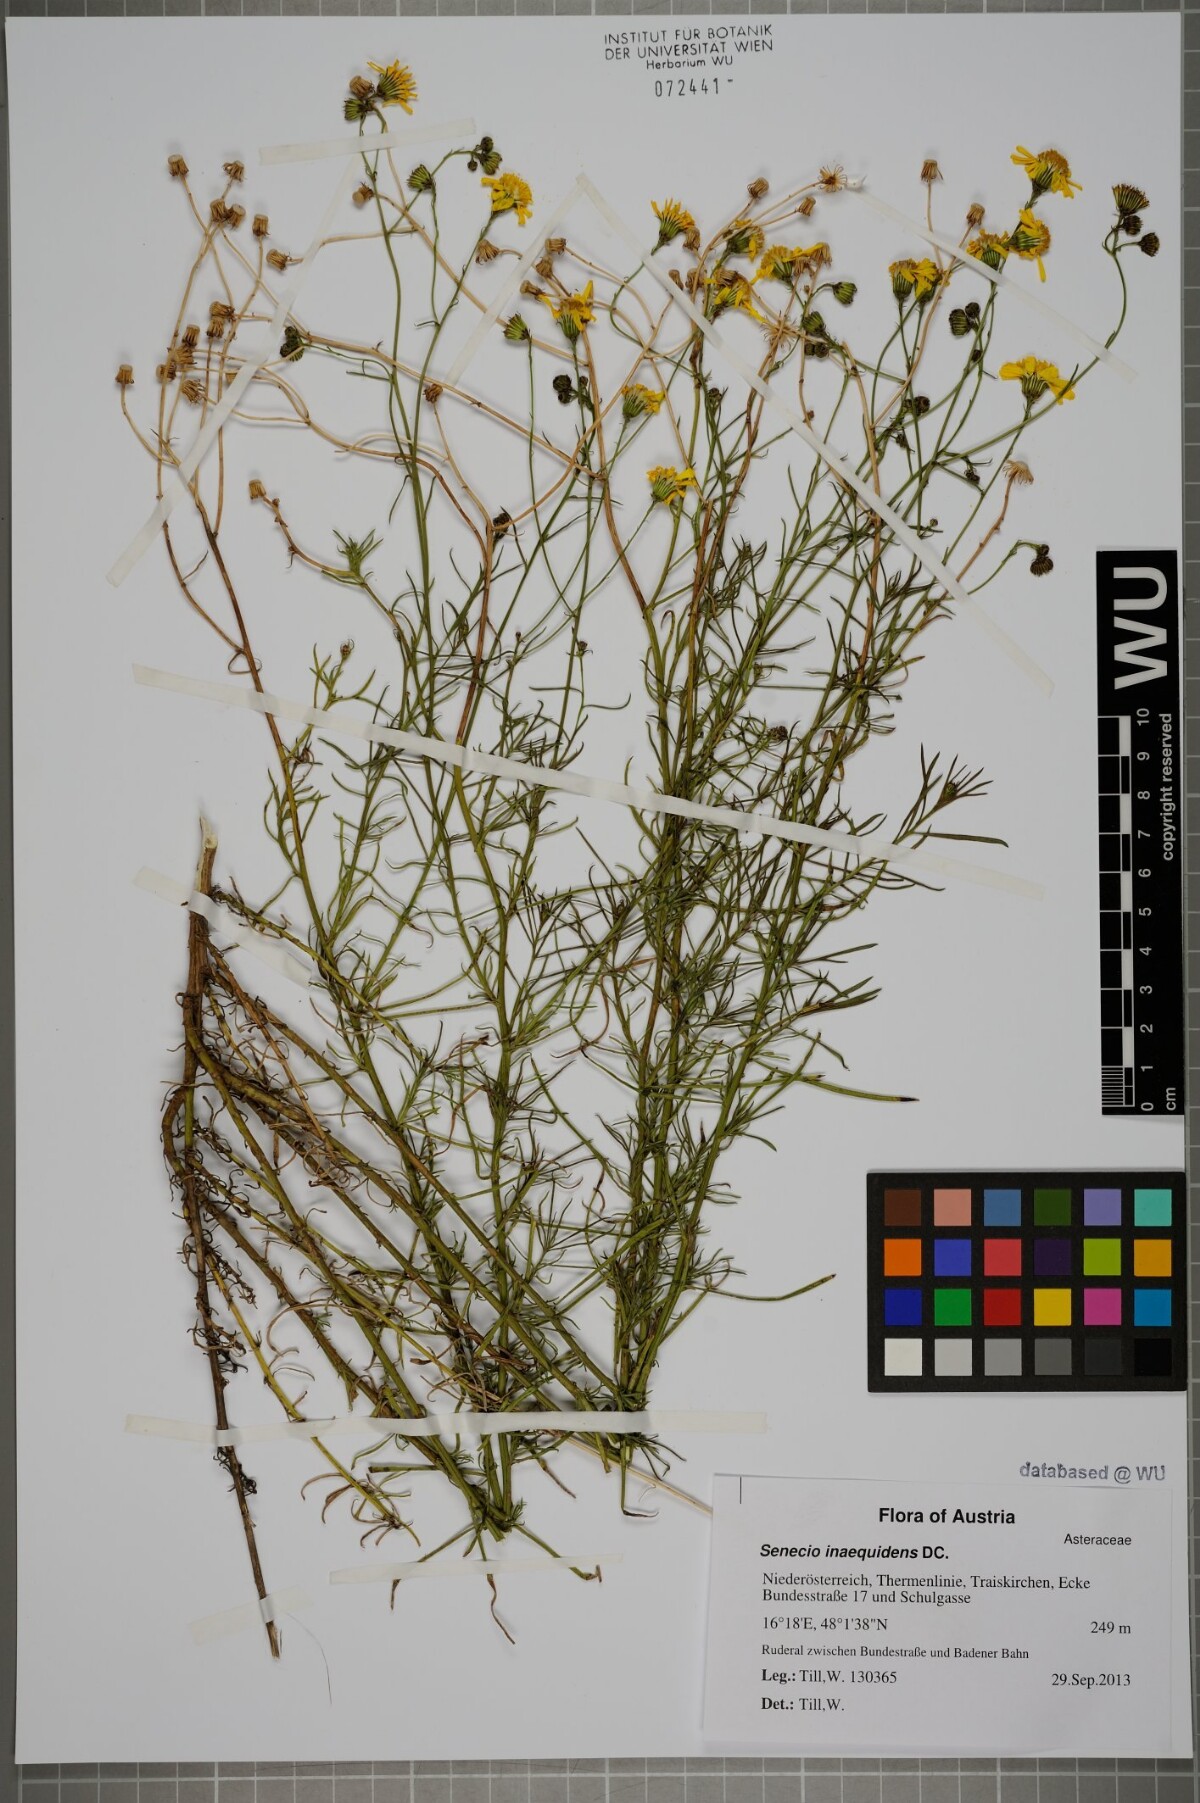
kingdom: Plantae
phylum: Tracheophyta
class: Magnoliopsida
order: Asterales
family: Asteraceae
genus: Senecio
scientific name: Senecio inaequidens
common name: Narrow-leaved ragwort
